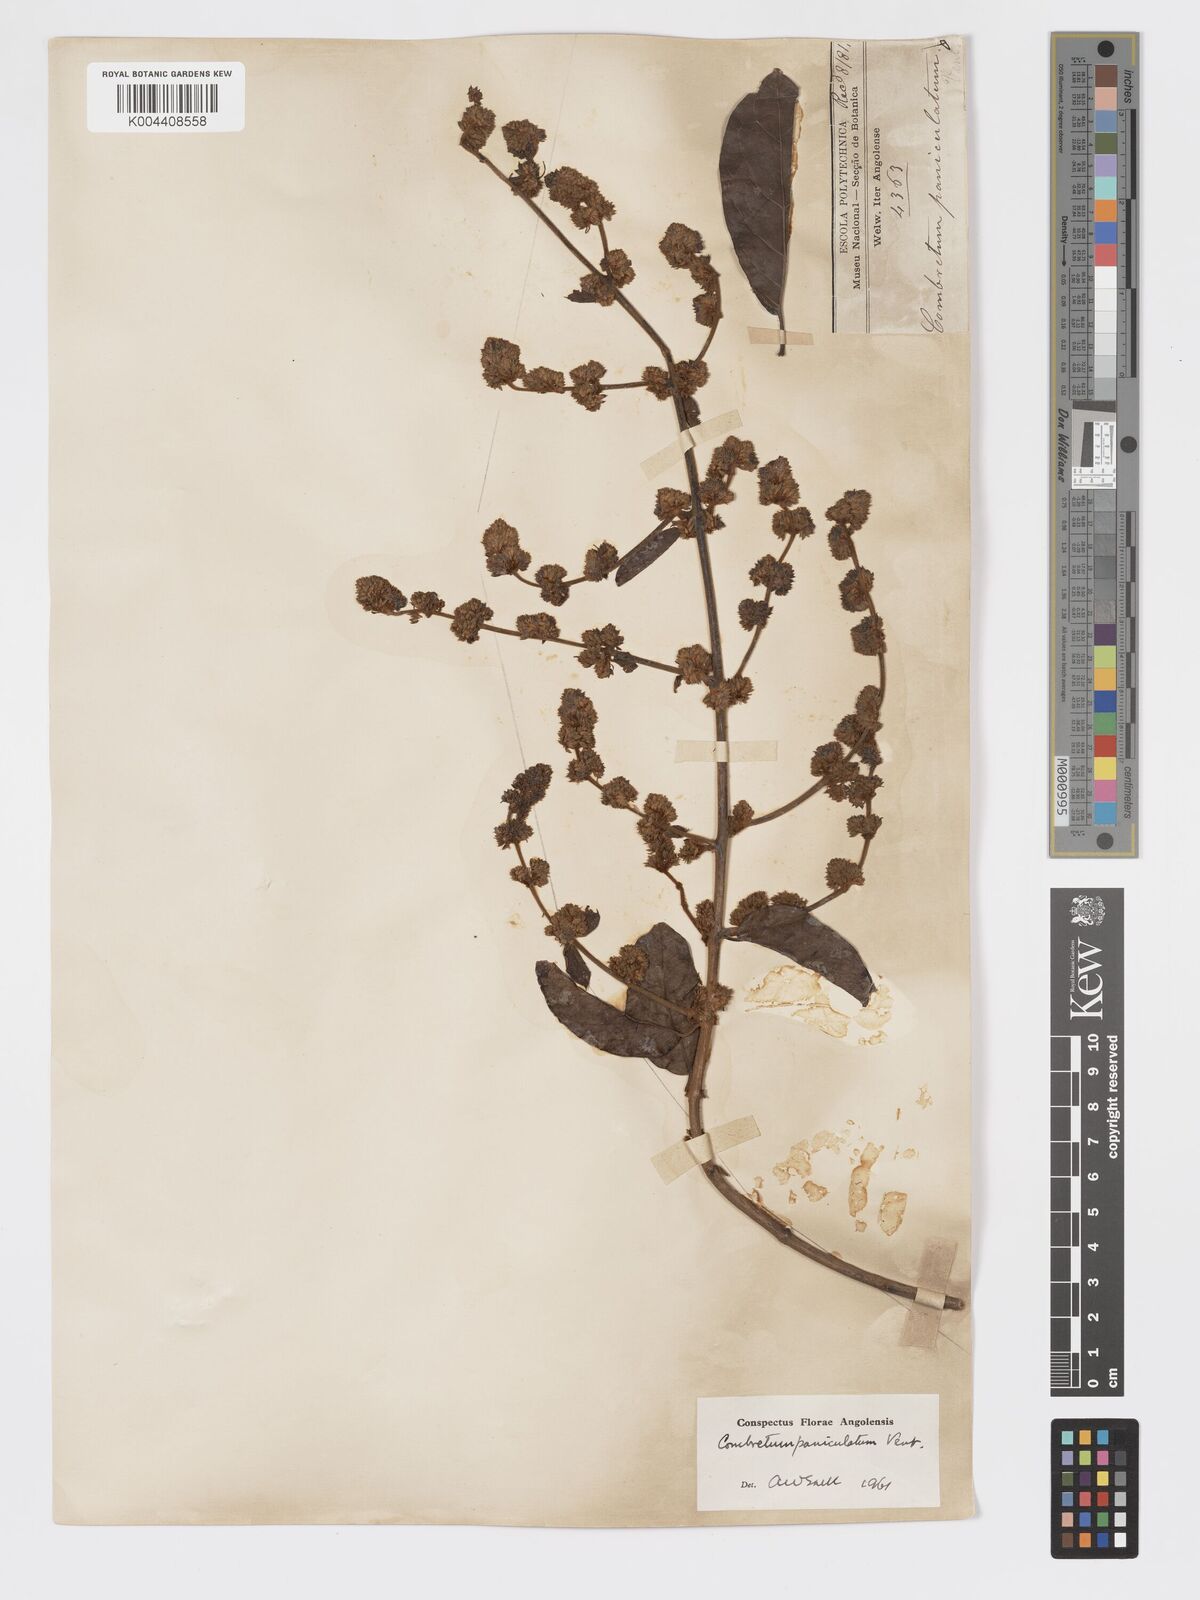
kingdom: Plantae
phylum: Tracheophyta
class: Magnoliopsida
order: Myrtales
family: Combretaceae
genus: Combretum
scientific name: Combretum paniculatum
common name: Fire vine
